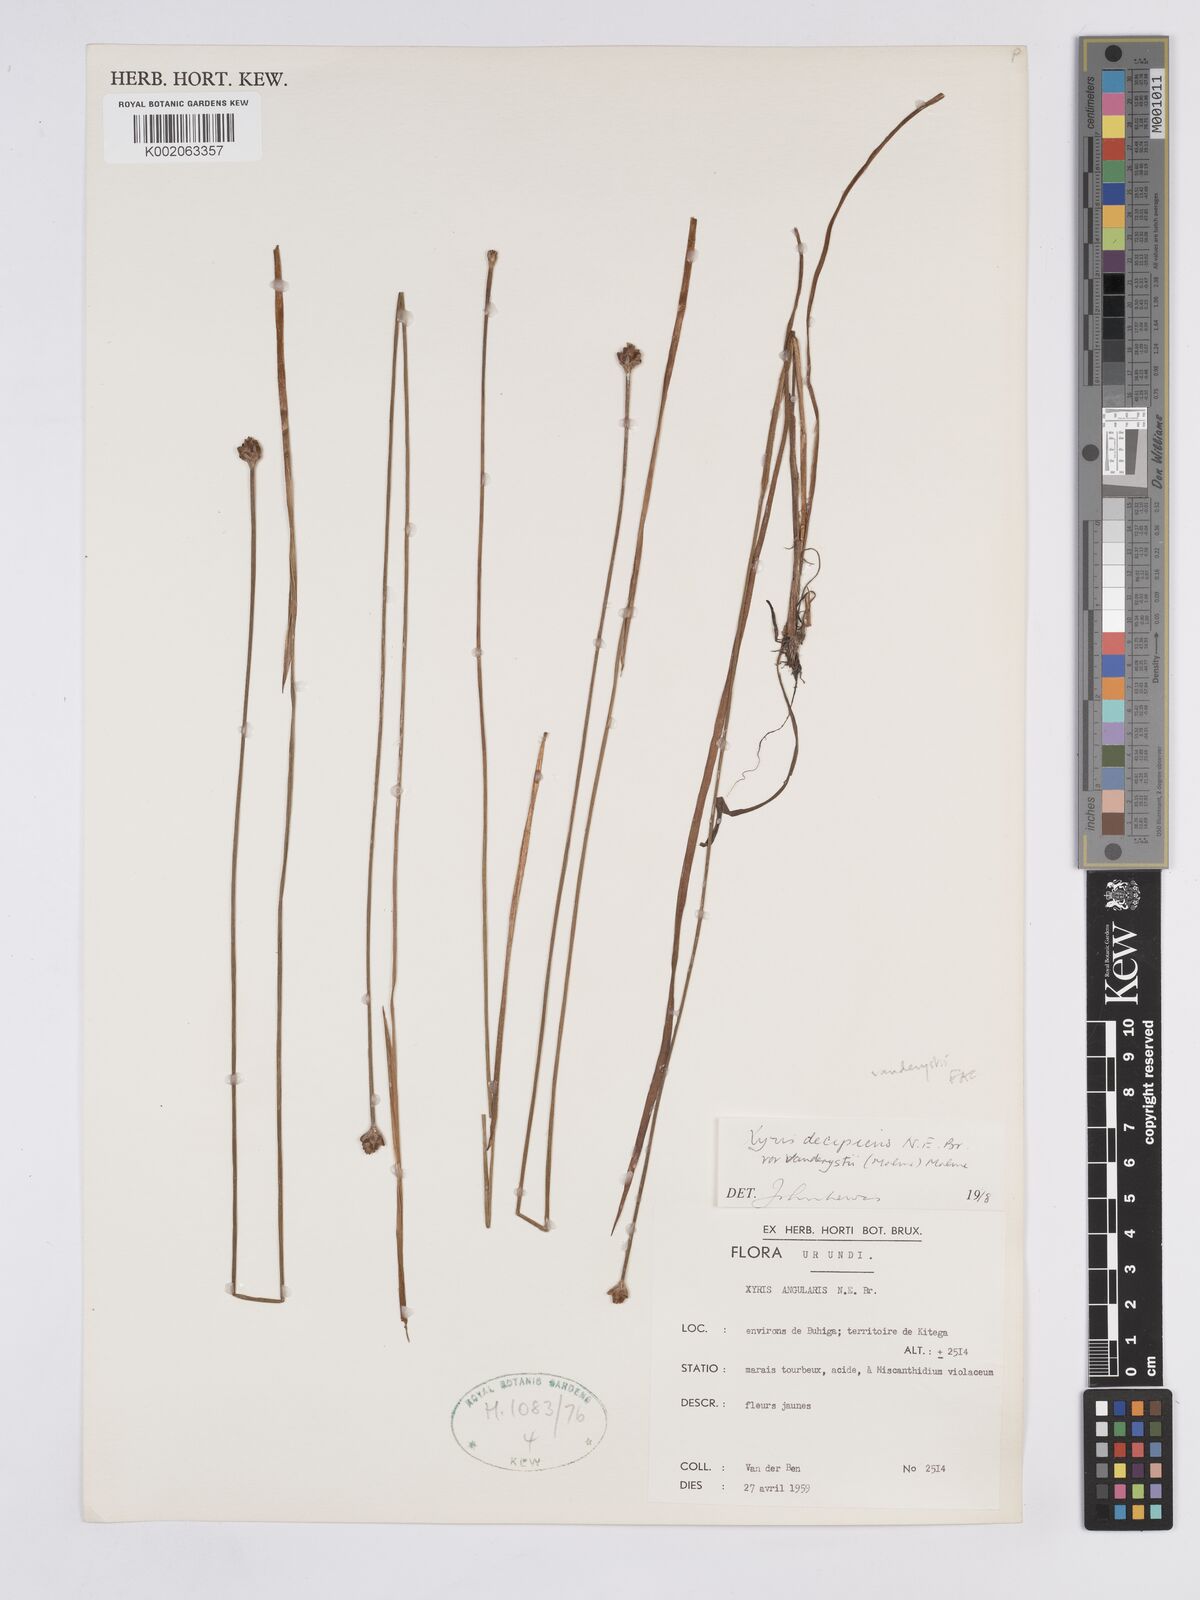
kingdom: Plantae
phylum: Tracheophyta
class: Liliopsida
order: Poales
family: Xyridaceae
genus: Xyris
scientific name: Xyris decipiens
